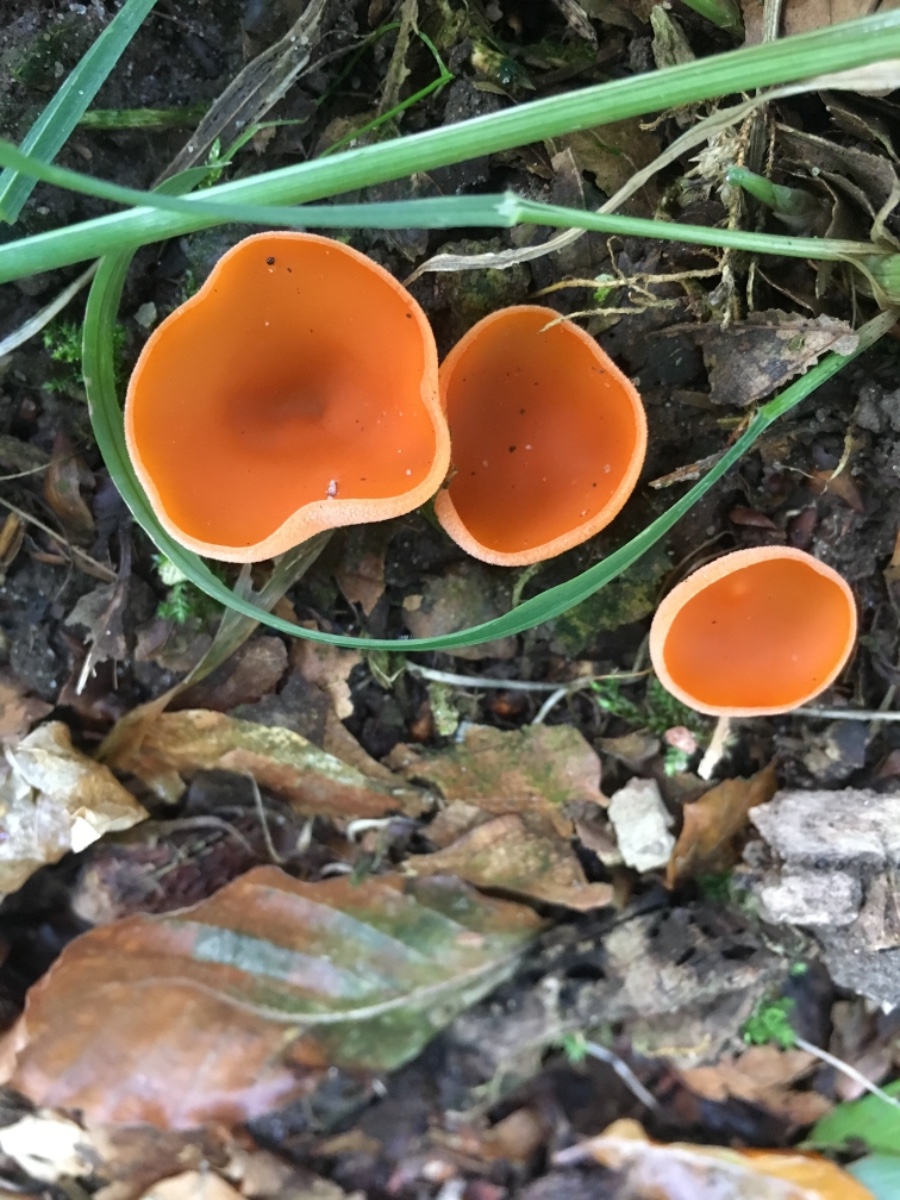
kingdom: Fungi
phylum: Ascomycota
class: Pezizomycetes
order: Pezizales
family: Pyronemataceae
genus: Aleuria
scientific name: Aleuria aurantia
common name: almindelig orangebæger
